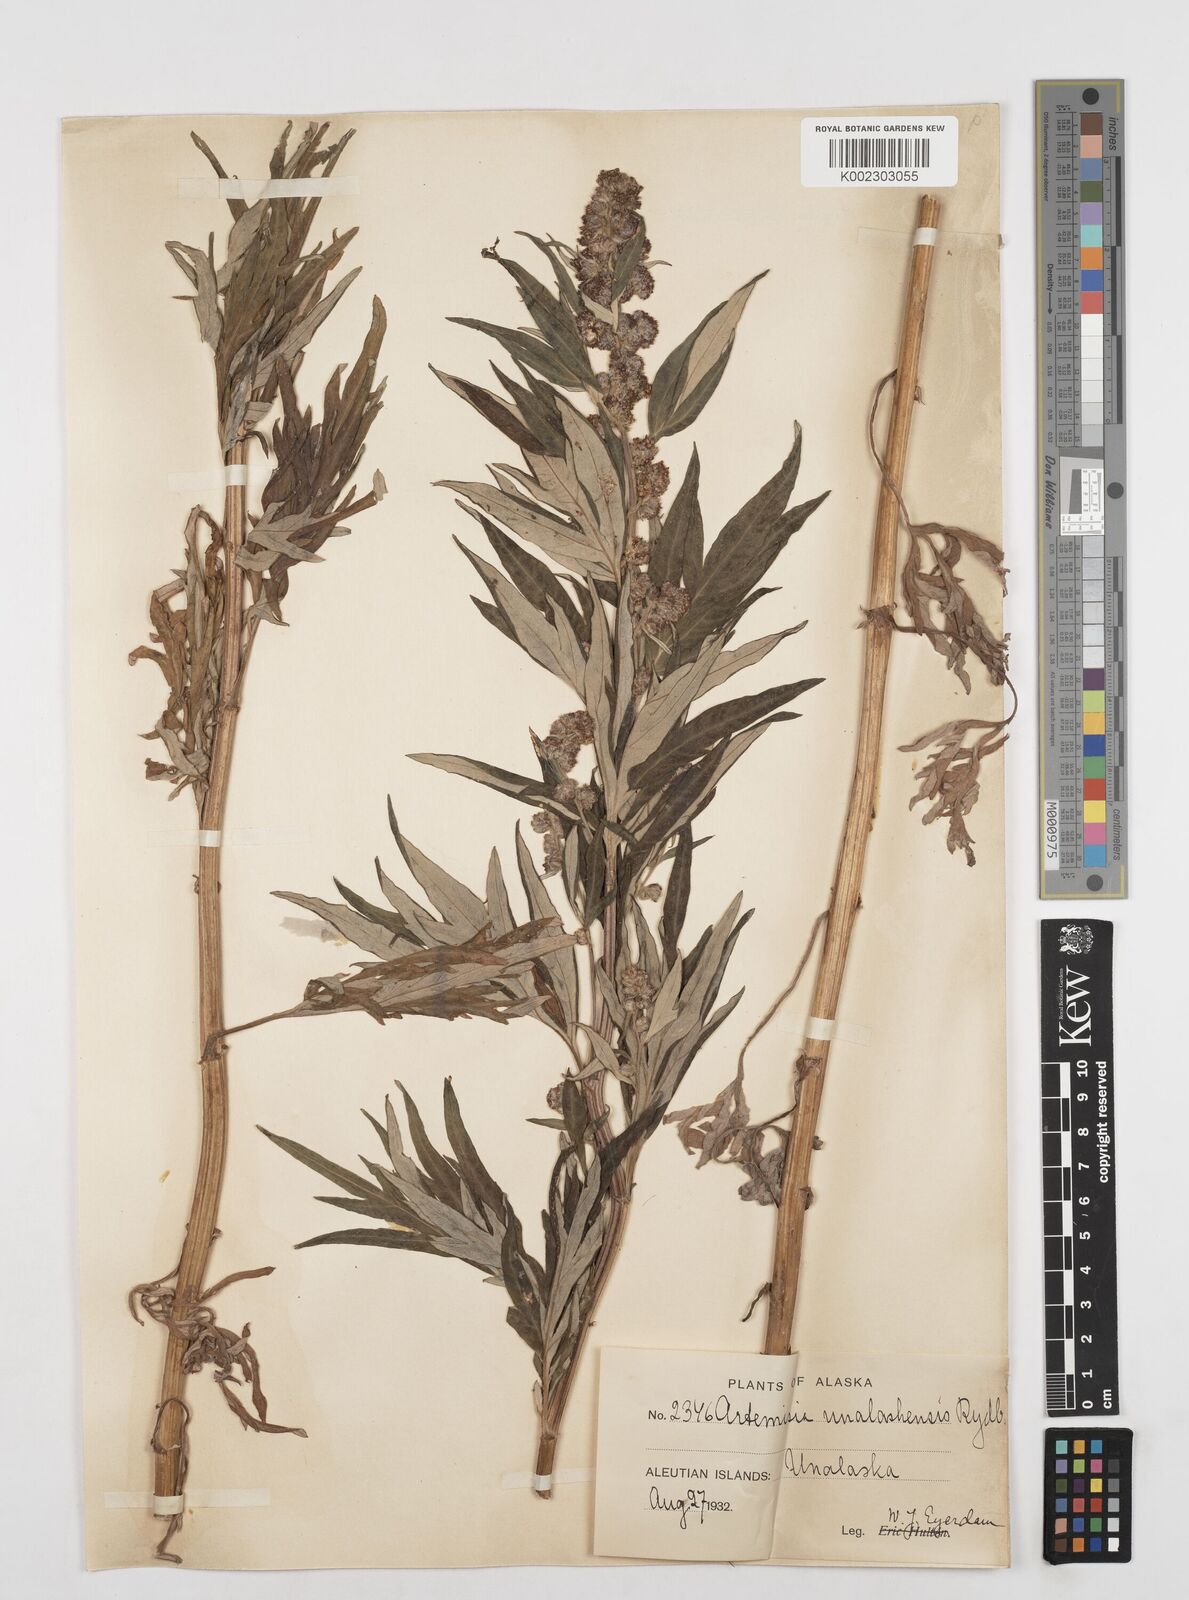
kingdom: Plantae
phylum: Tracheophyta
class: Magnoliopsida
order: Asterales
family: Asteraceae
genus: Artemisia
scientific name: Artemisia tilesii
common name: Aleutian mugwort
